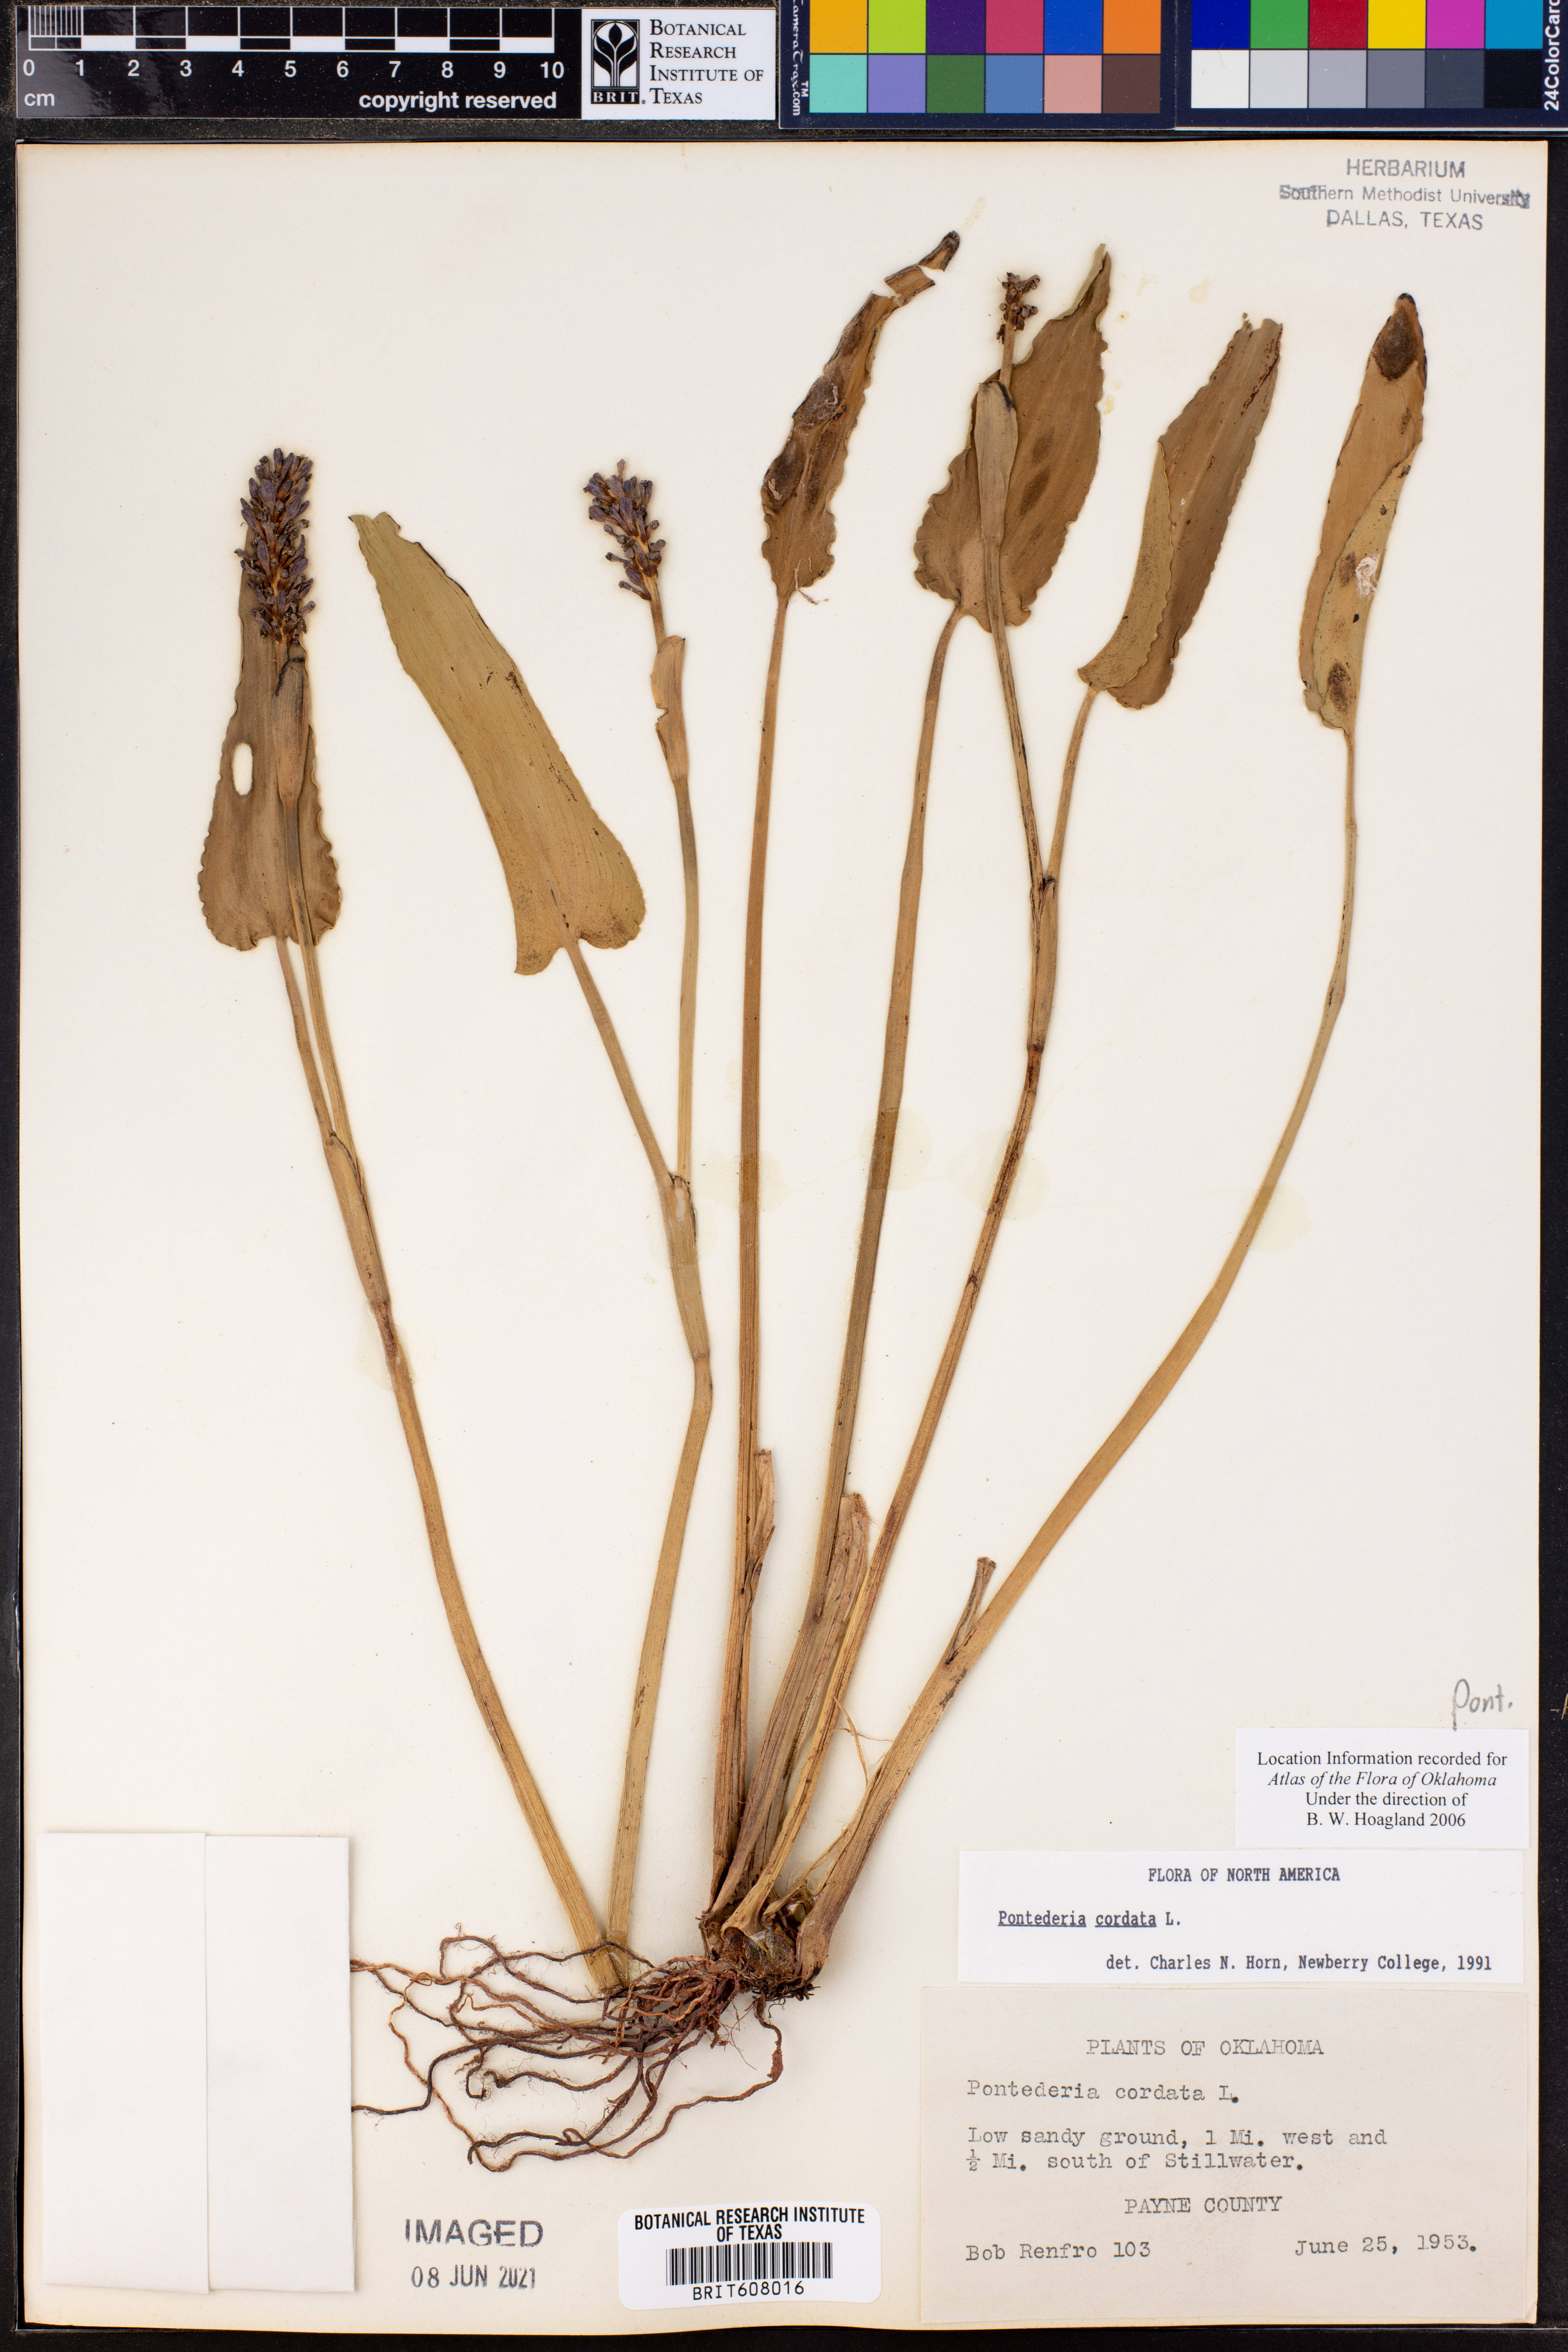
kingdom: Plantae
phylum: Tracheophyta
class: Liliopsida
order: Commelinales
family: Pontederiaceae
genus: Pontederia
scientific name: Pontederia cordata
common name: Pickerelweed
